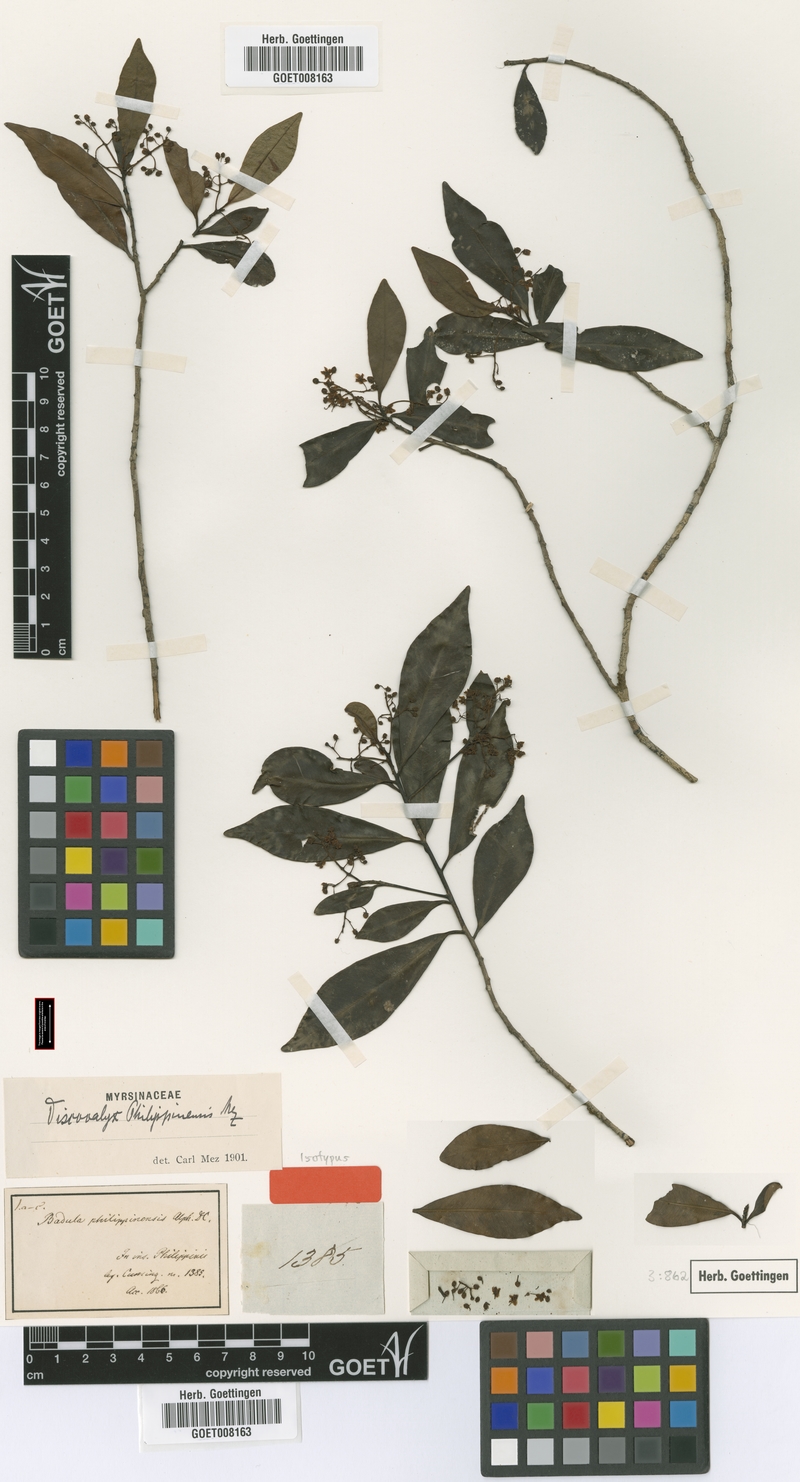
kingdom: Plantae
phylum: Tracheophyta
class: Magnoliopsida
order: Ericales
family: Primulaceae
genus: Discocalyx
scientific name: Discocalyx philippinensis
